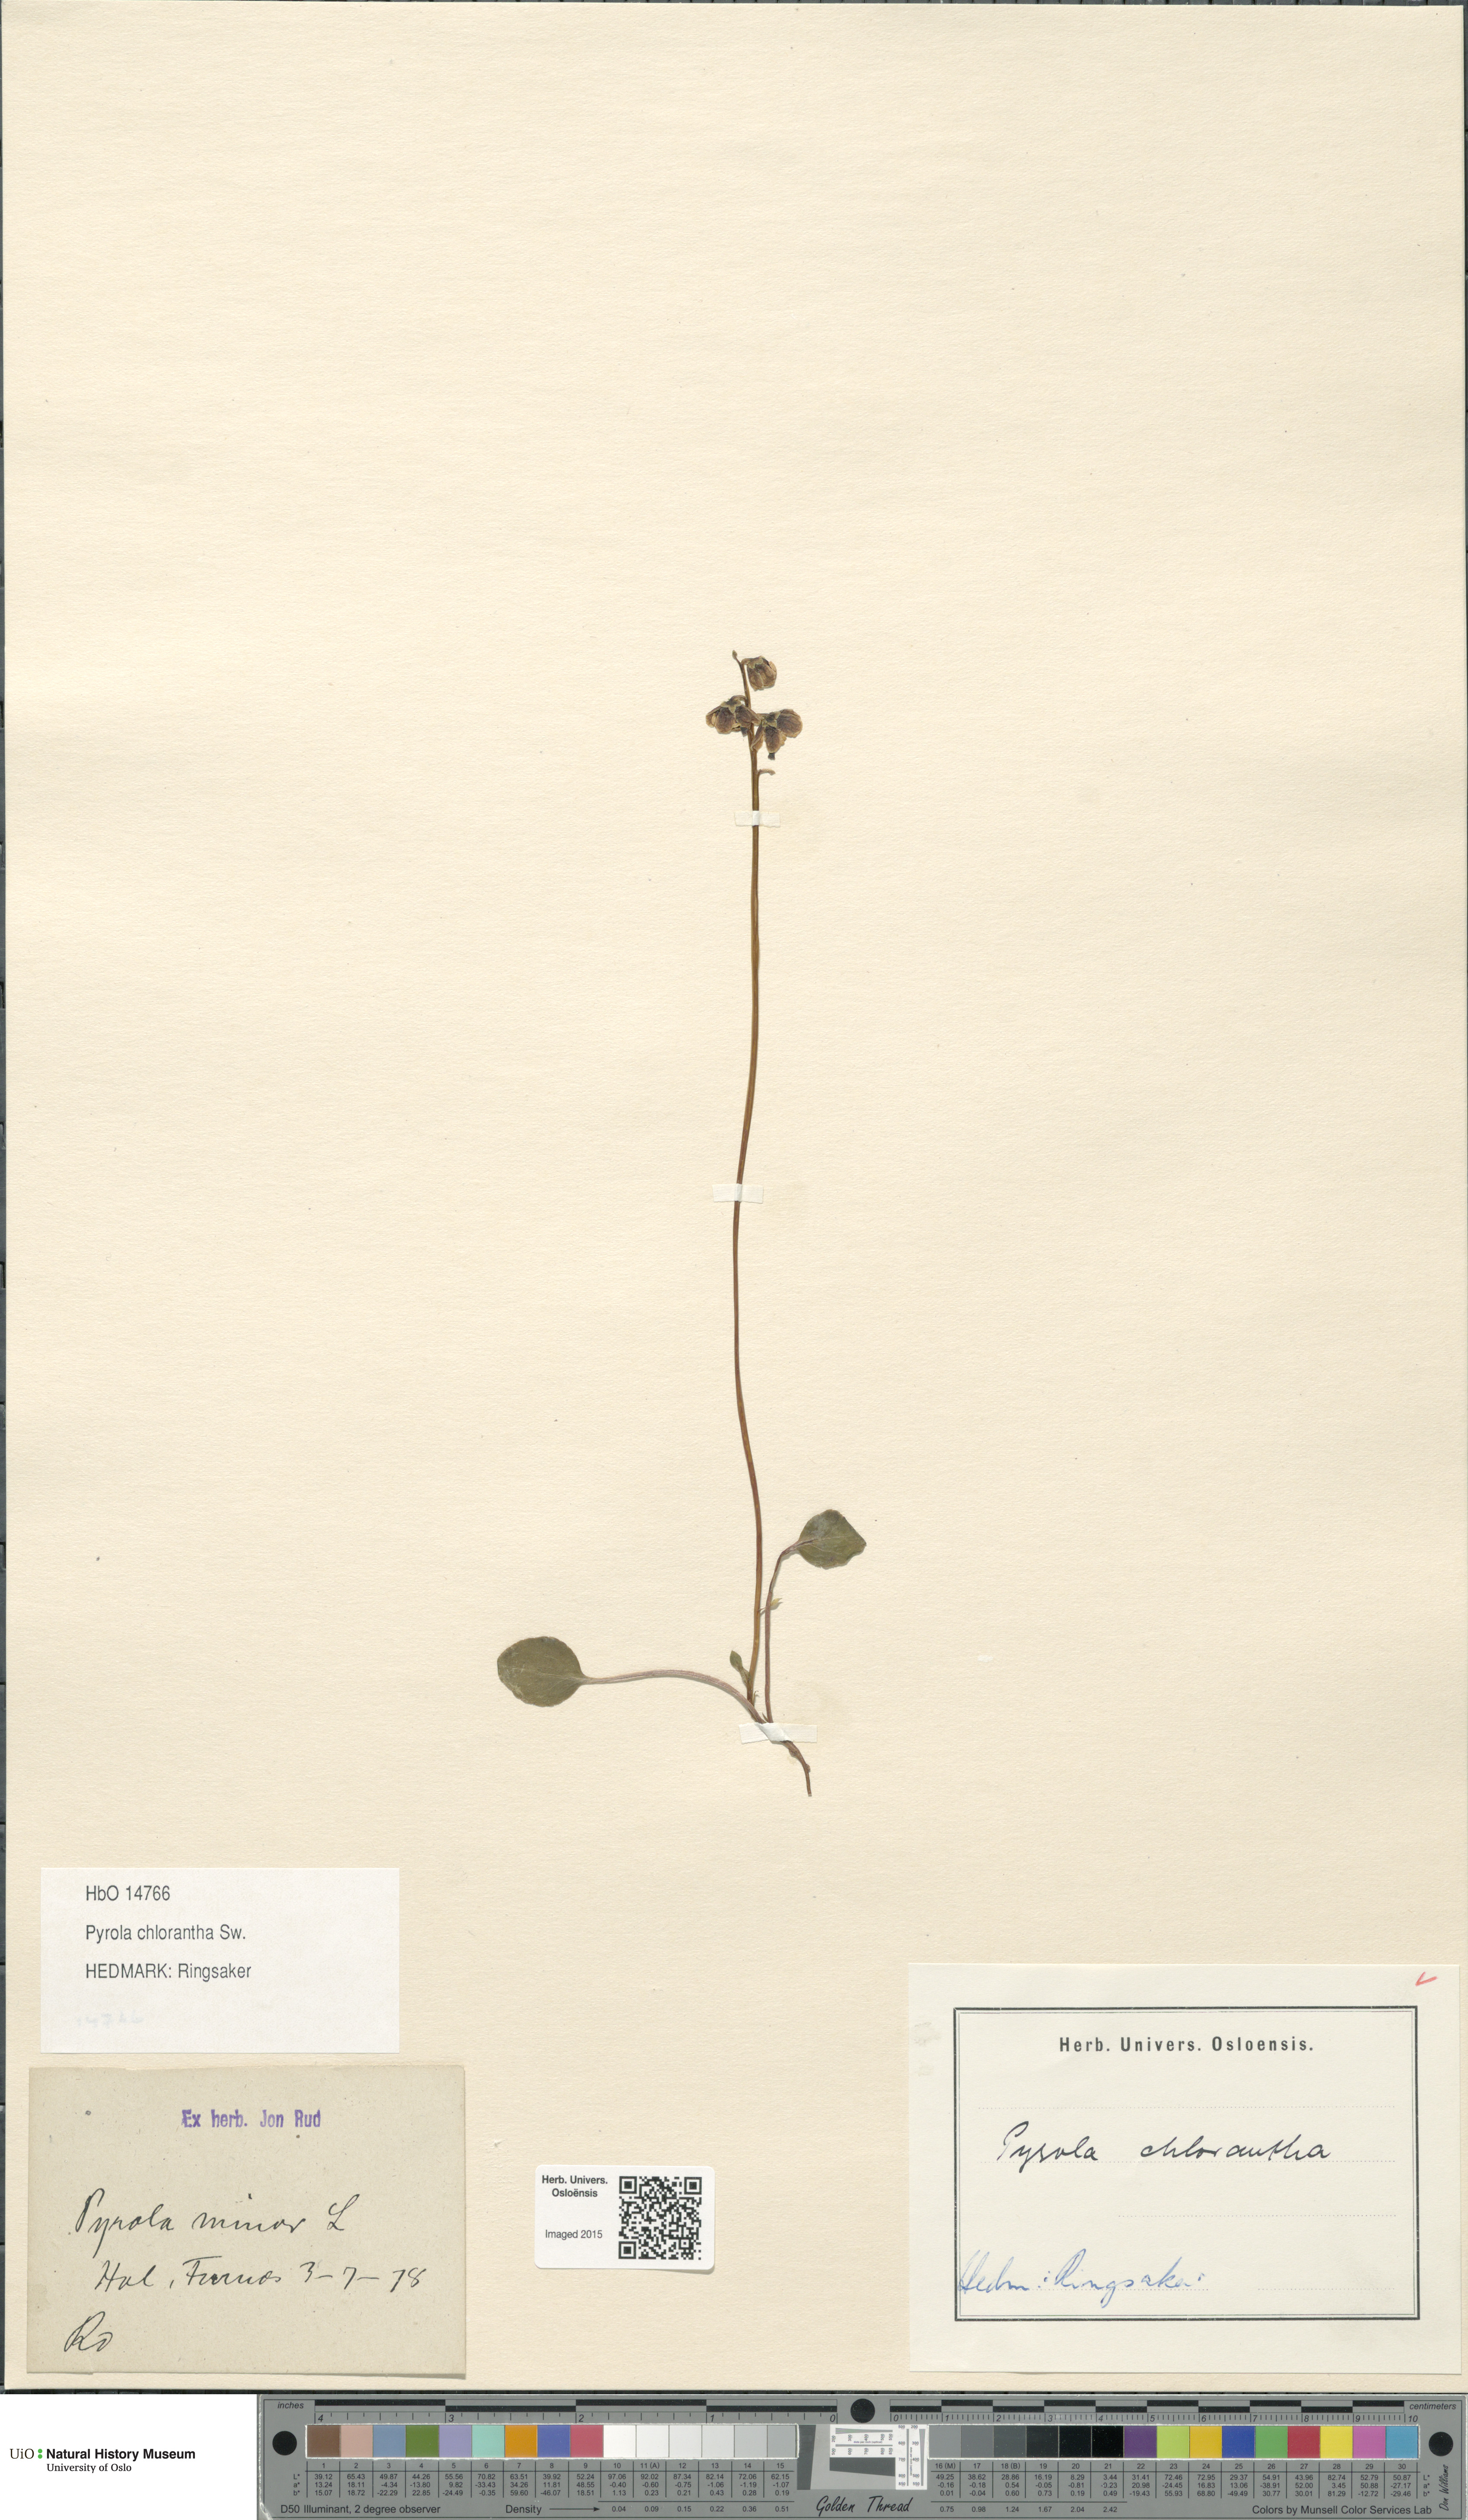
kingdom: Plantae
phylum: Tracheophyta
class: Magnoliopsida
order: Ericales
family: Ericaceae
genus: Pyrola
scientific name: Pyrola chlorantha
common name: Green wintergreen
